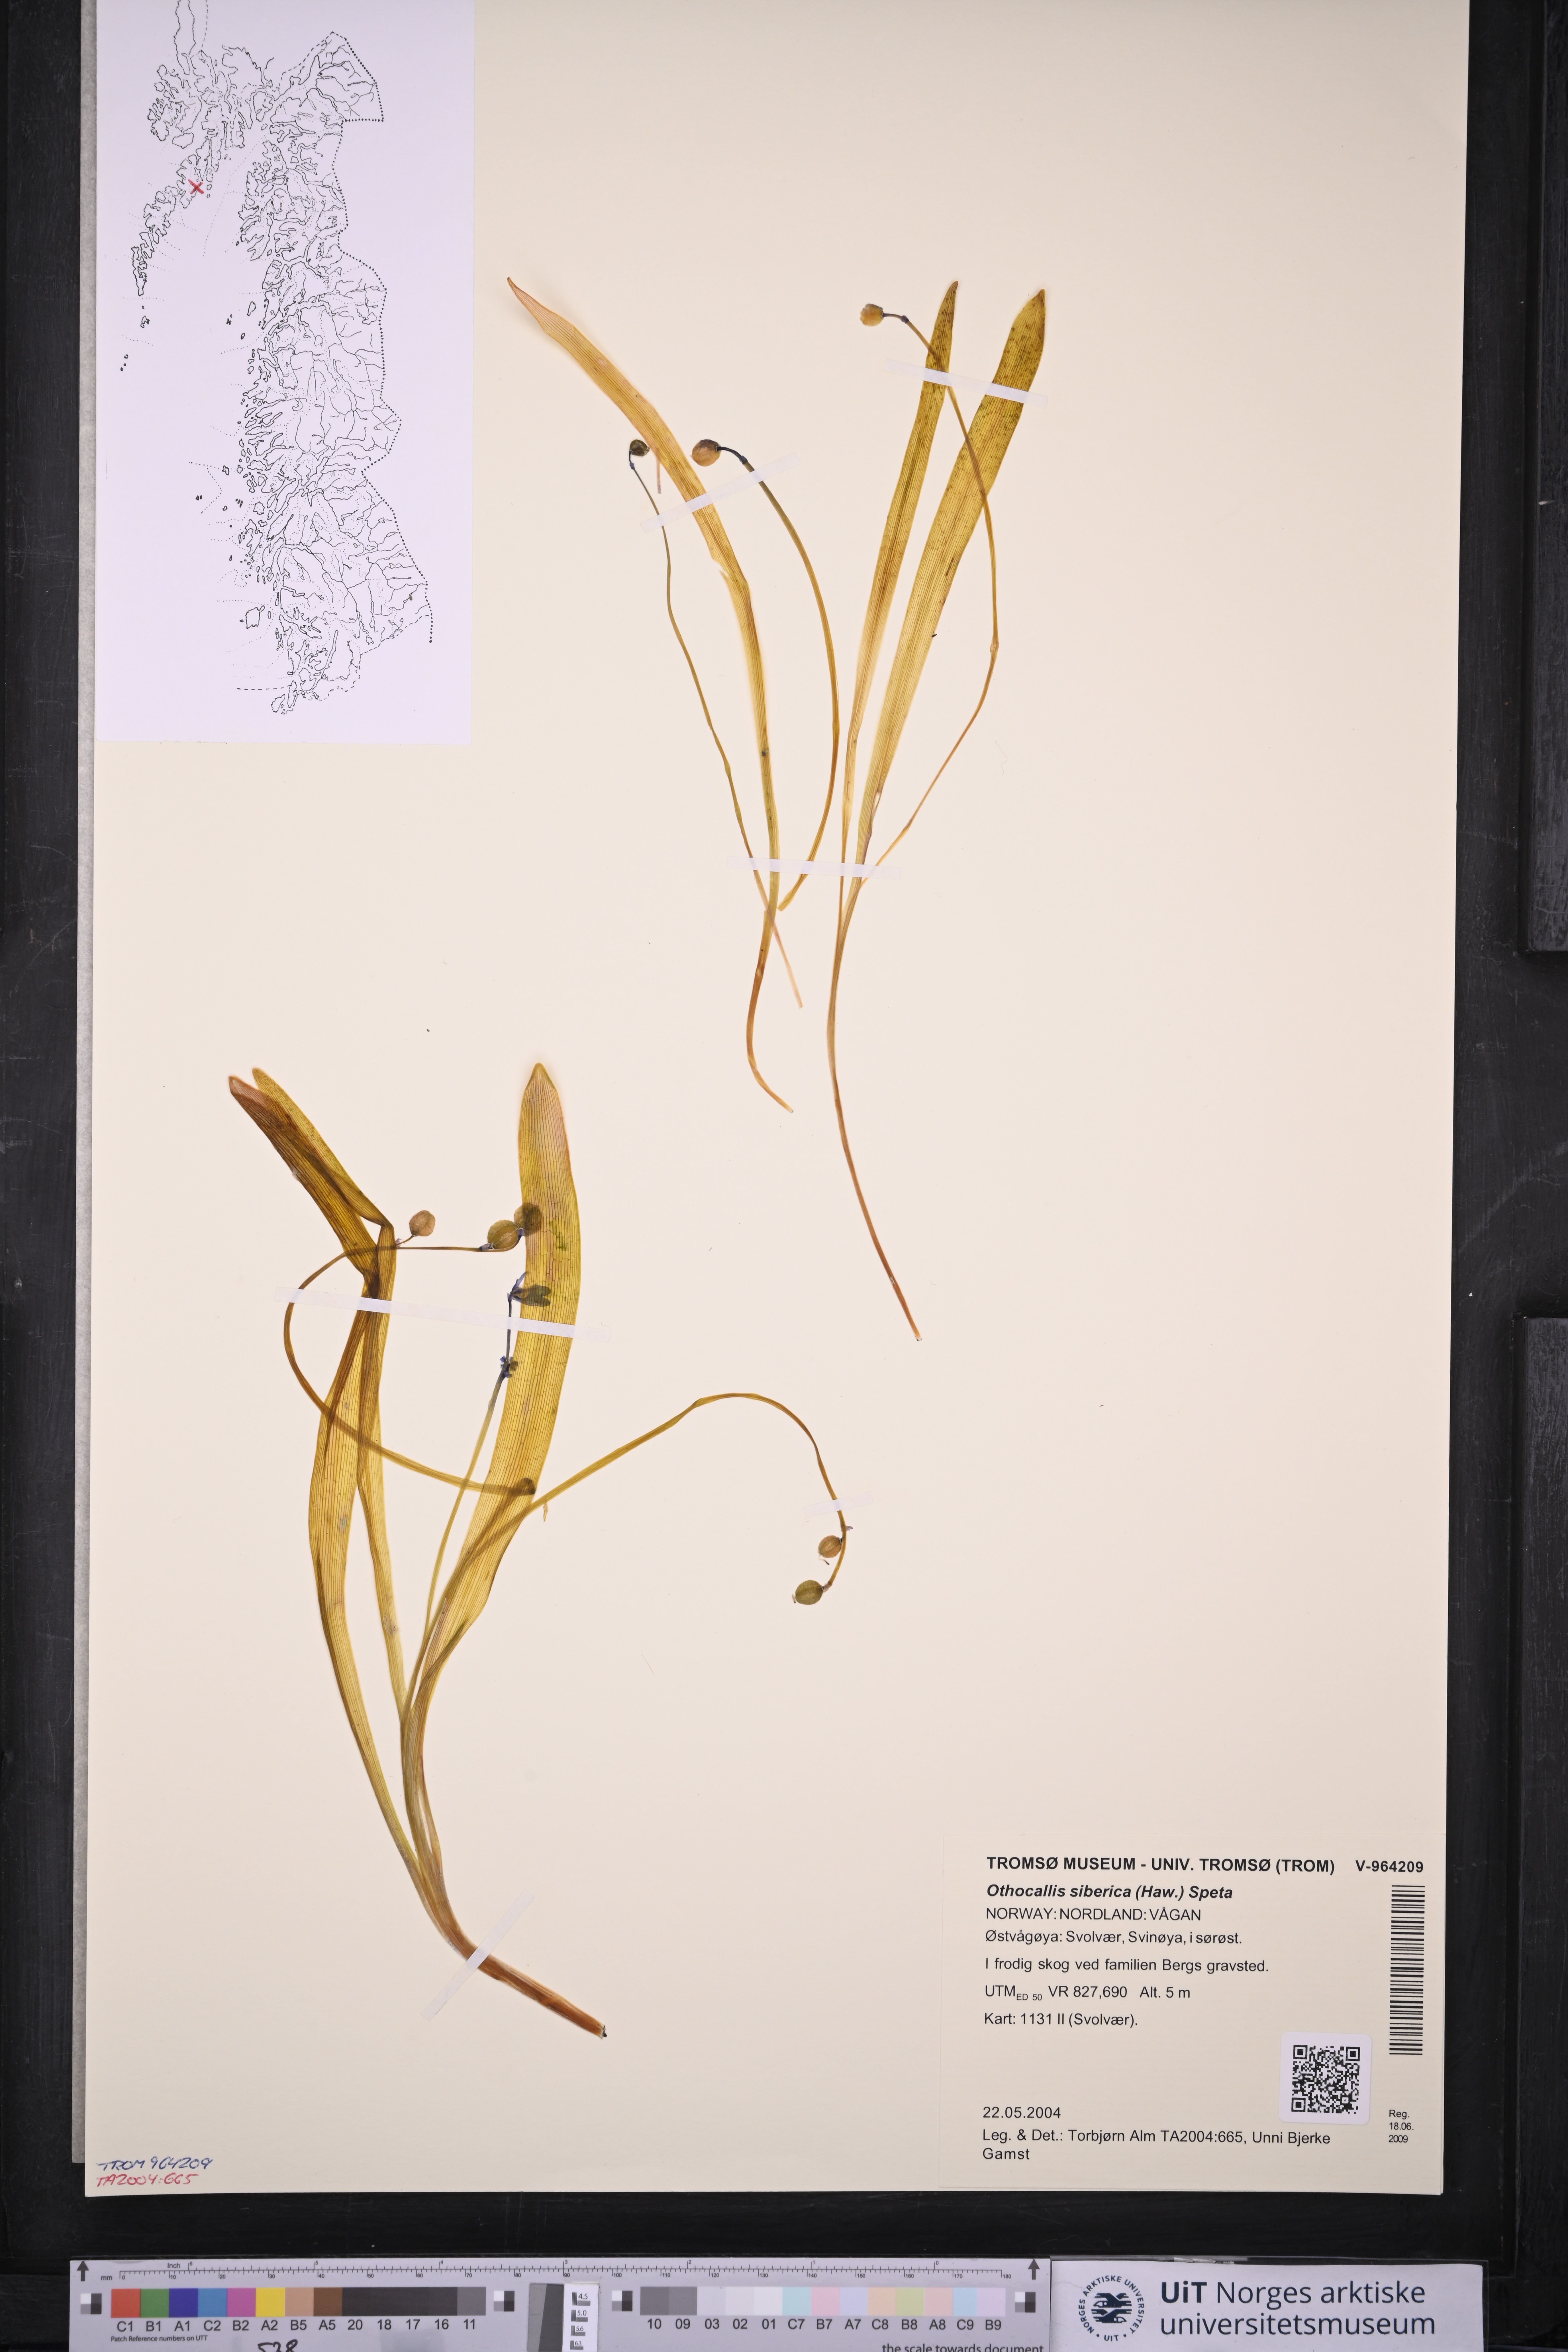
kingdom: Plantae
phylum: Tracheophyta
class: Liliopsida
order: Asparagales
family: Asparagaceae
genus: Scilla
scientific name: Scilla siberica
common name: Siberian squill
